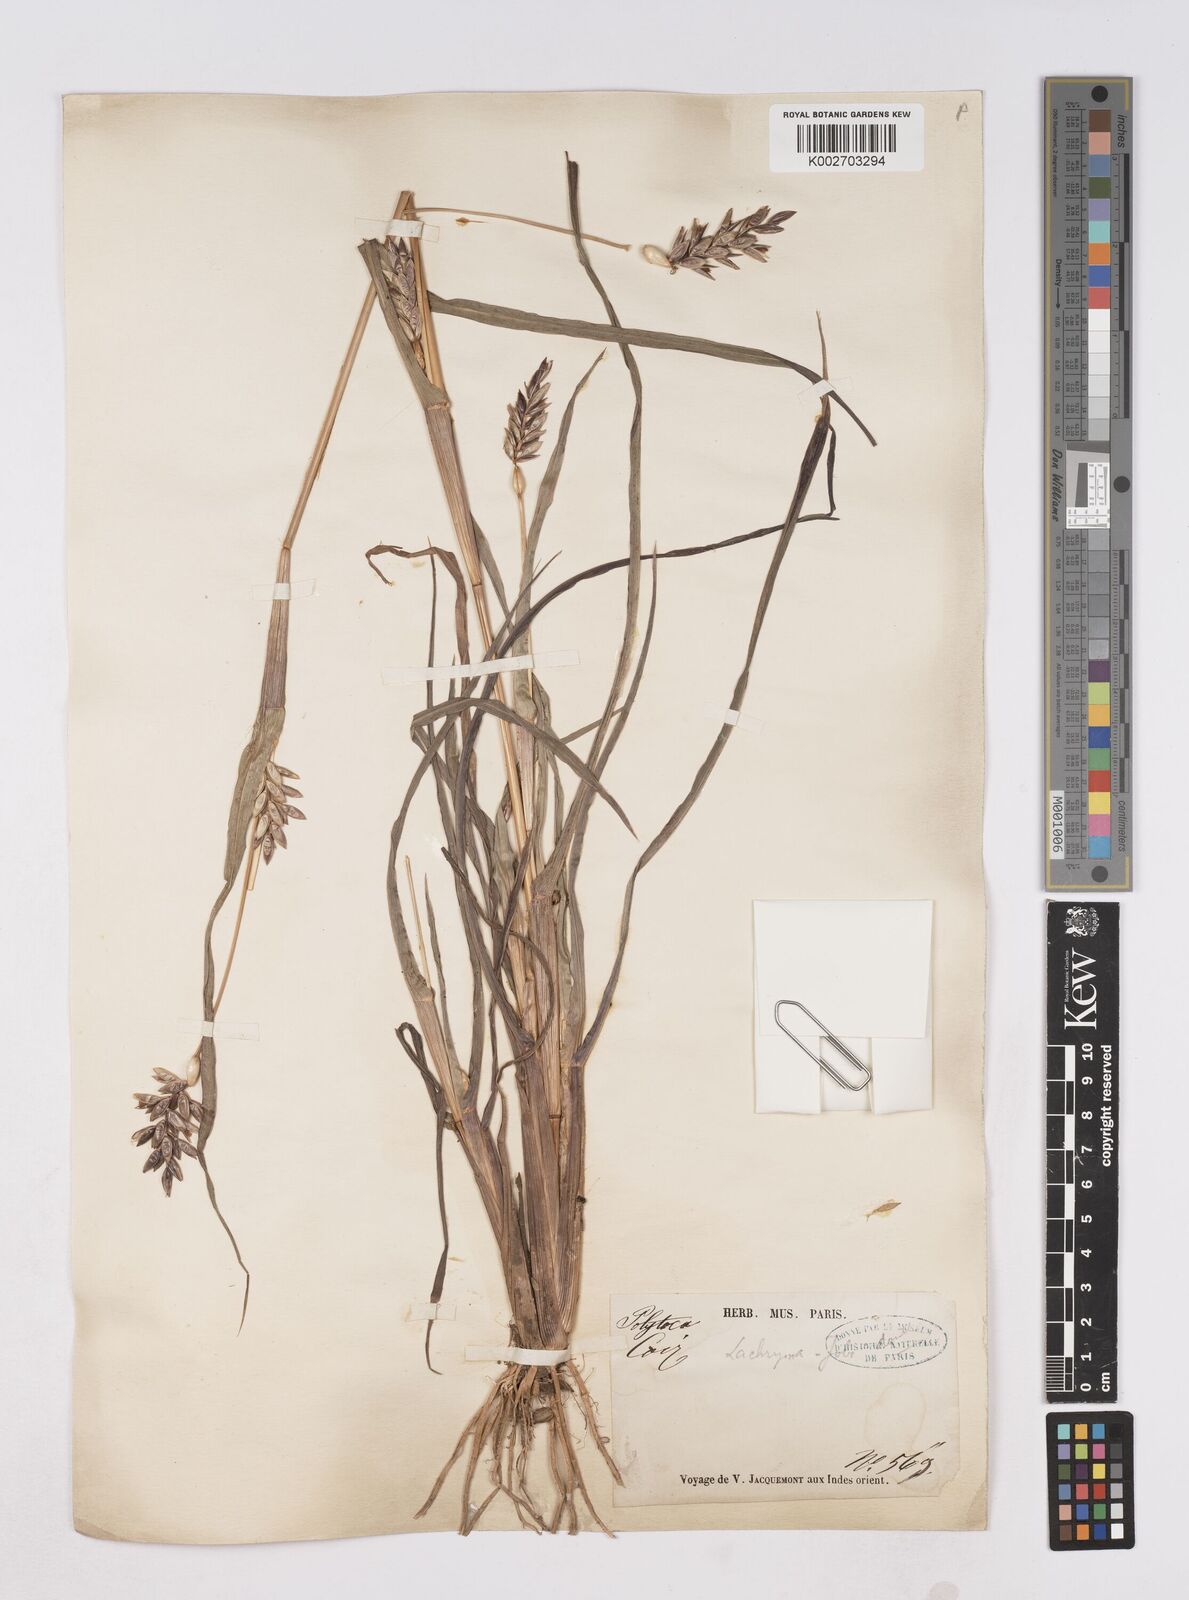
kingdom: Plantae
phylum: Tracheophyta
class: Liliopsida
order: Poales
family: Poaceae
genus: Coix
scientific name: Coix aquatica
